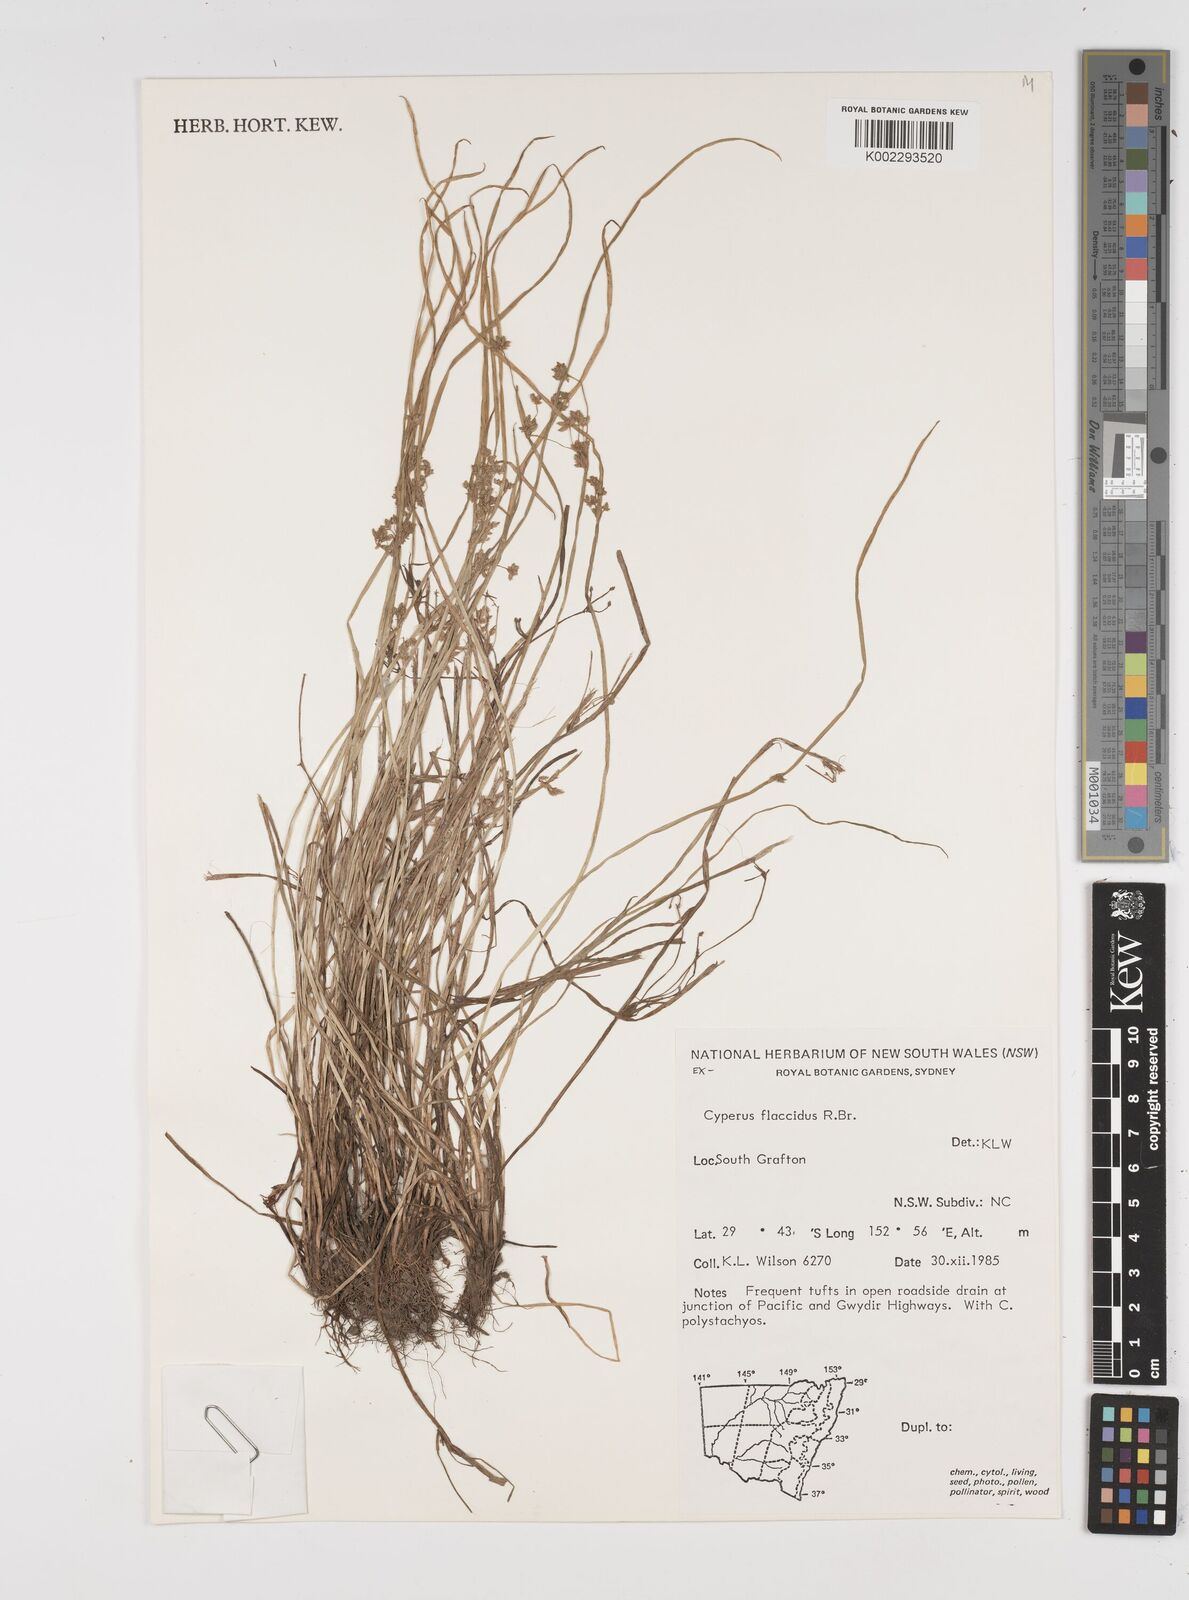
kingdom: Plantae
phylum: Tracheophyta
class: Liliopsida
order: Poales
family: Cyperaceae
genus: Cyperus
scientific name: Cyperus flaccidus
